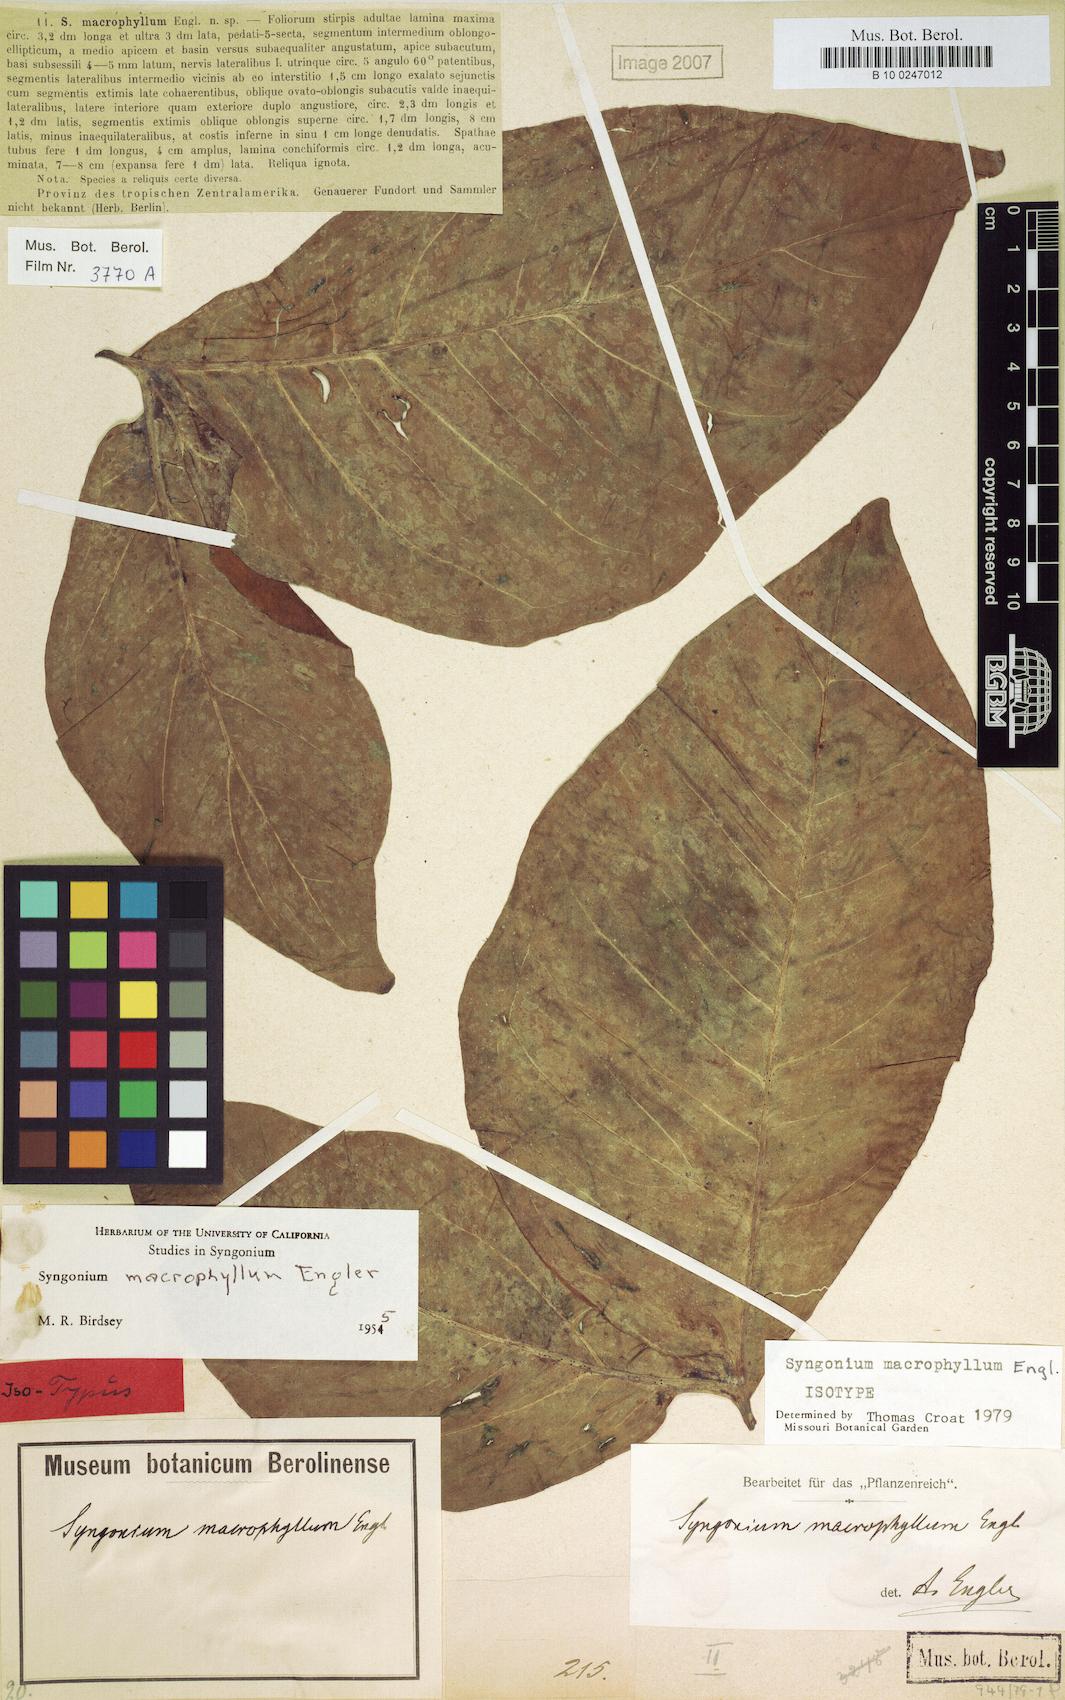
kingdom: Plantae
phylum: Tracheophyta
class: Liliopsida
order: Alismatales
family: Araceae
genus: Syngonium
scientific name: Syngonium macrophyllum
